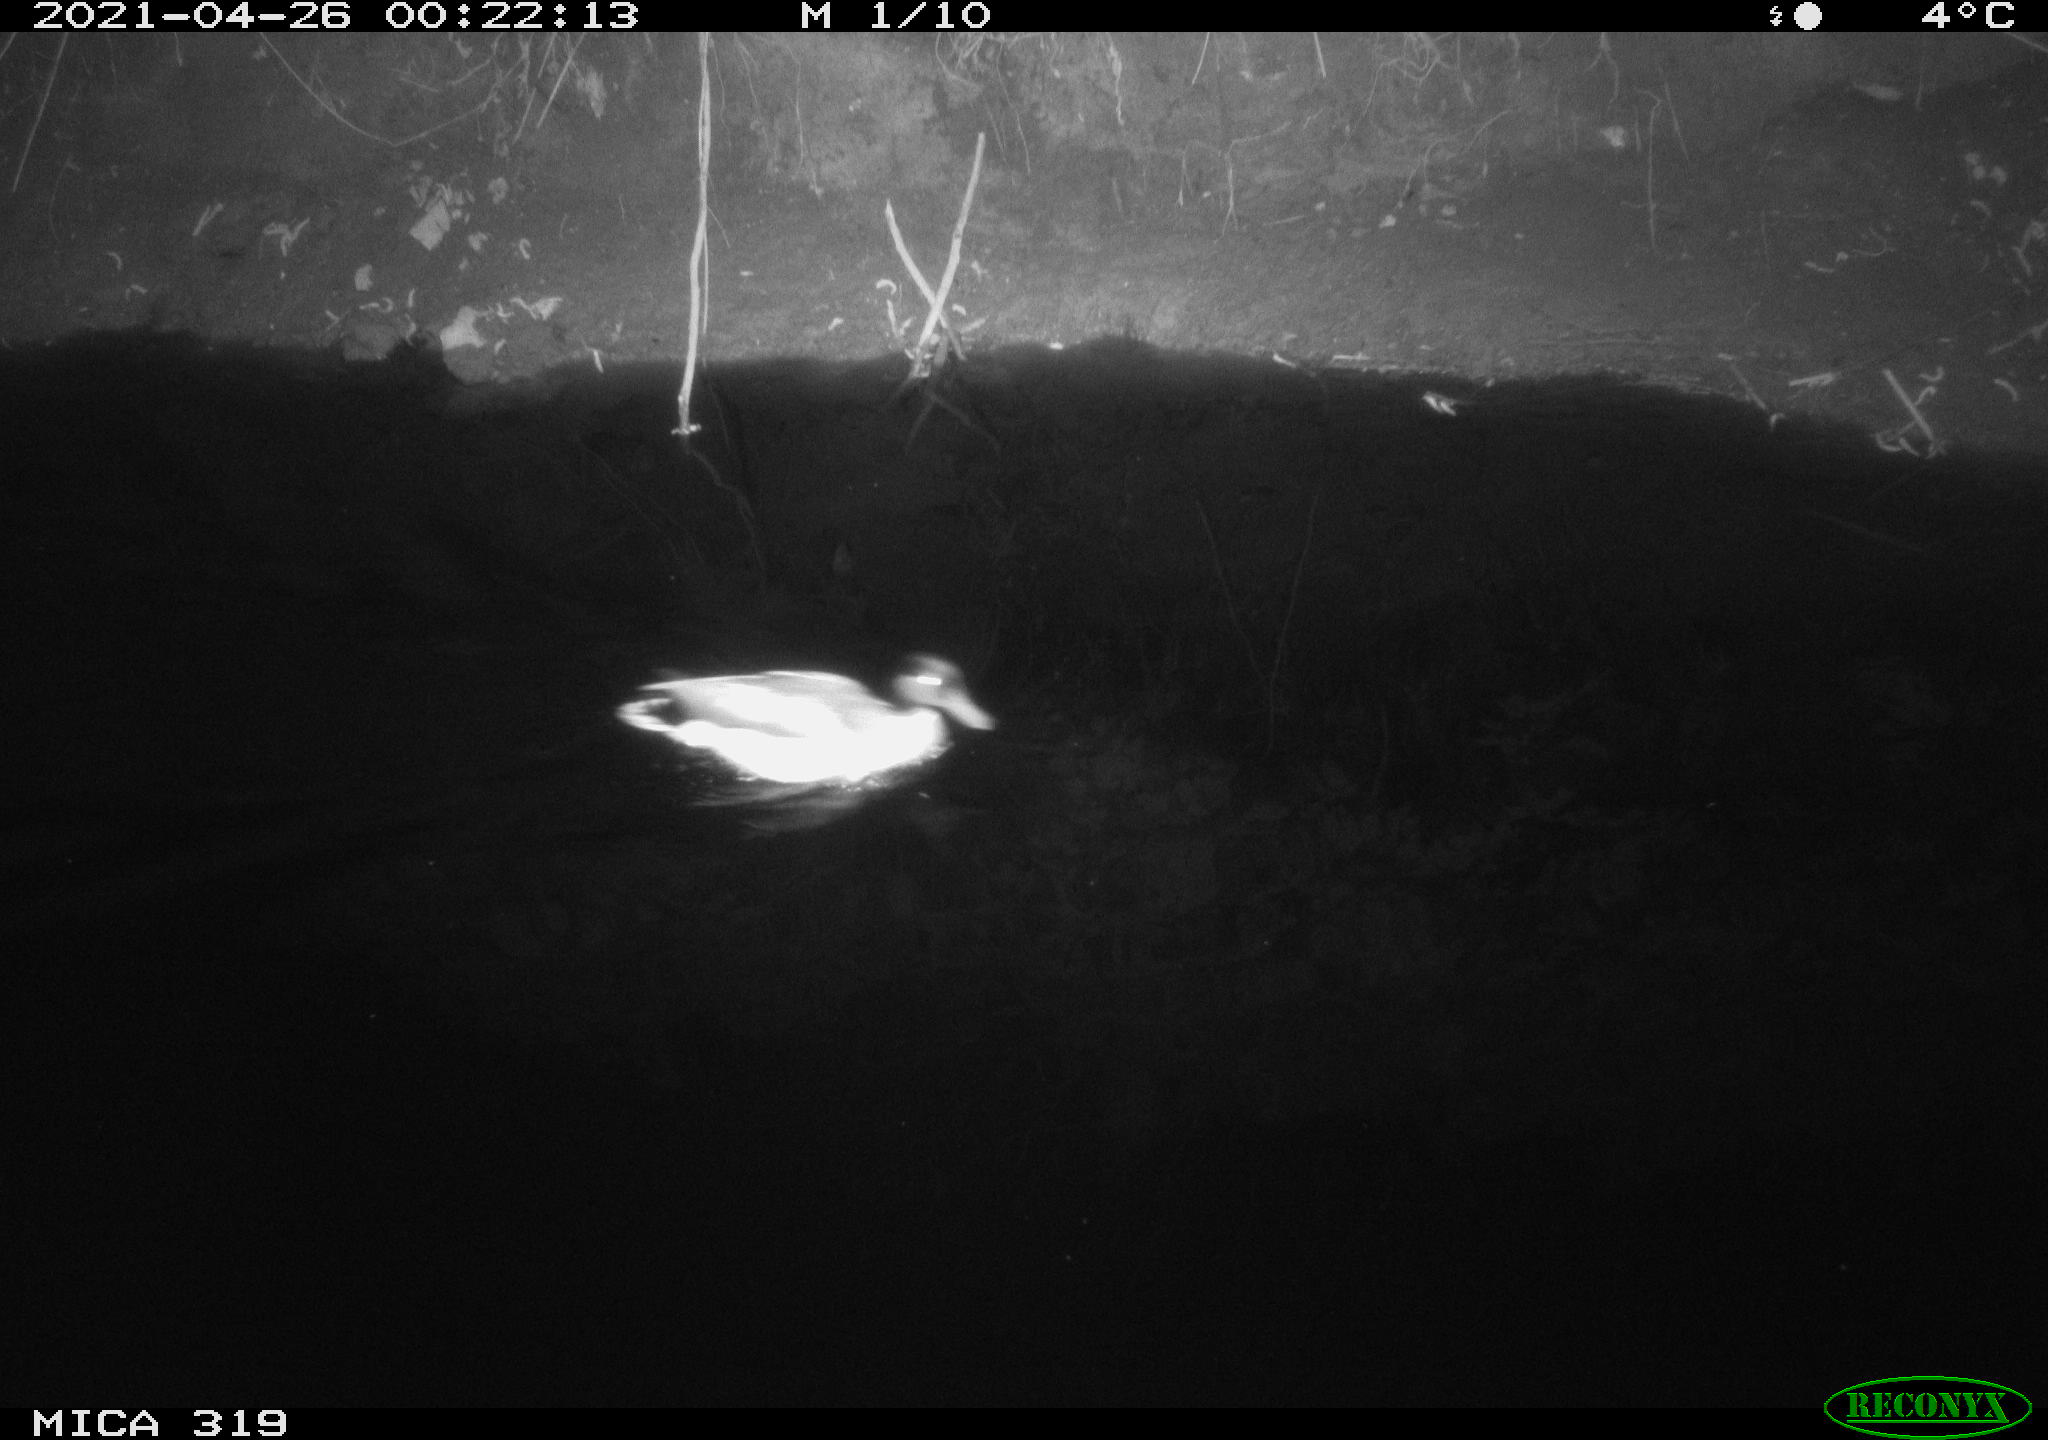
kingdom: Animalia
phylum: Chordata
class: Aves
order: Anseriformes
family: Anatidae
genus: Anas
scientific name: Anas platyrhynchos
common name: Mallard
